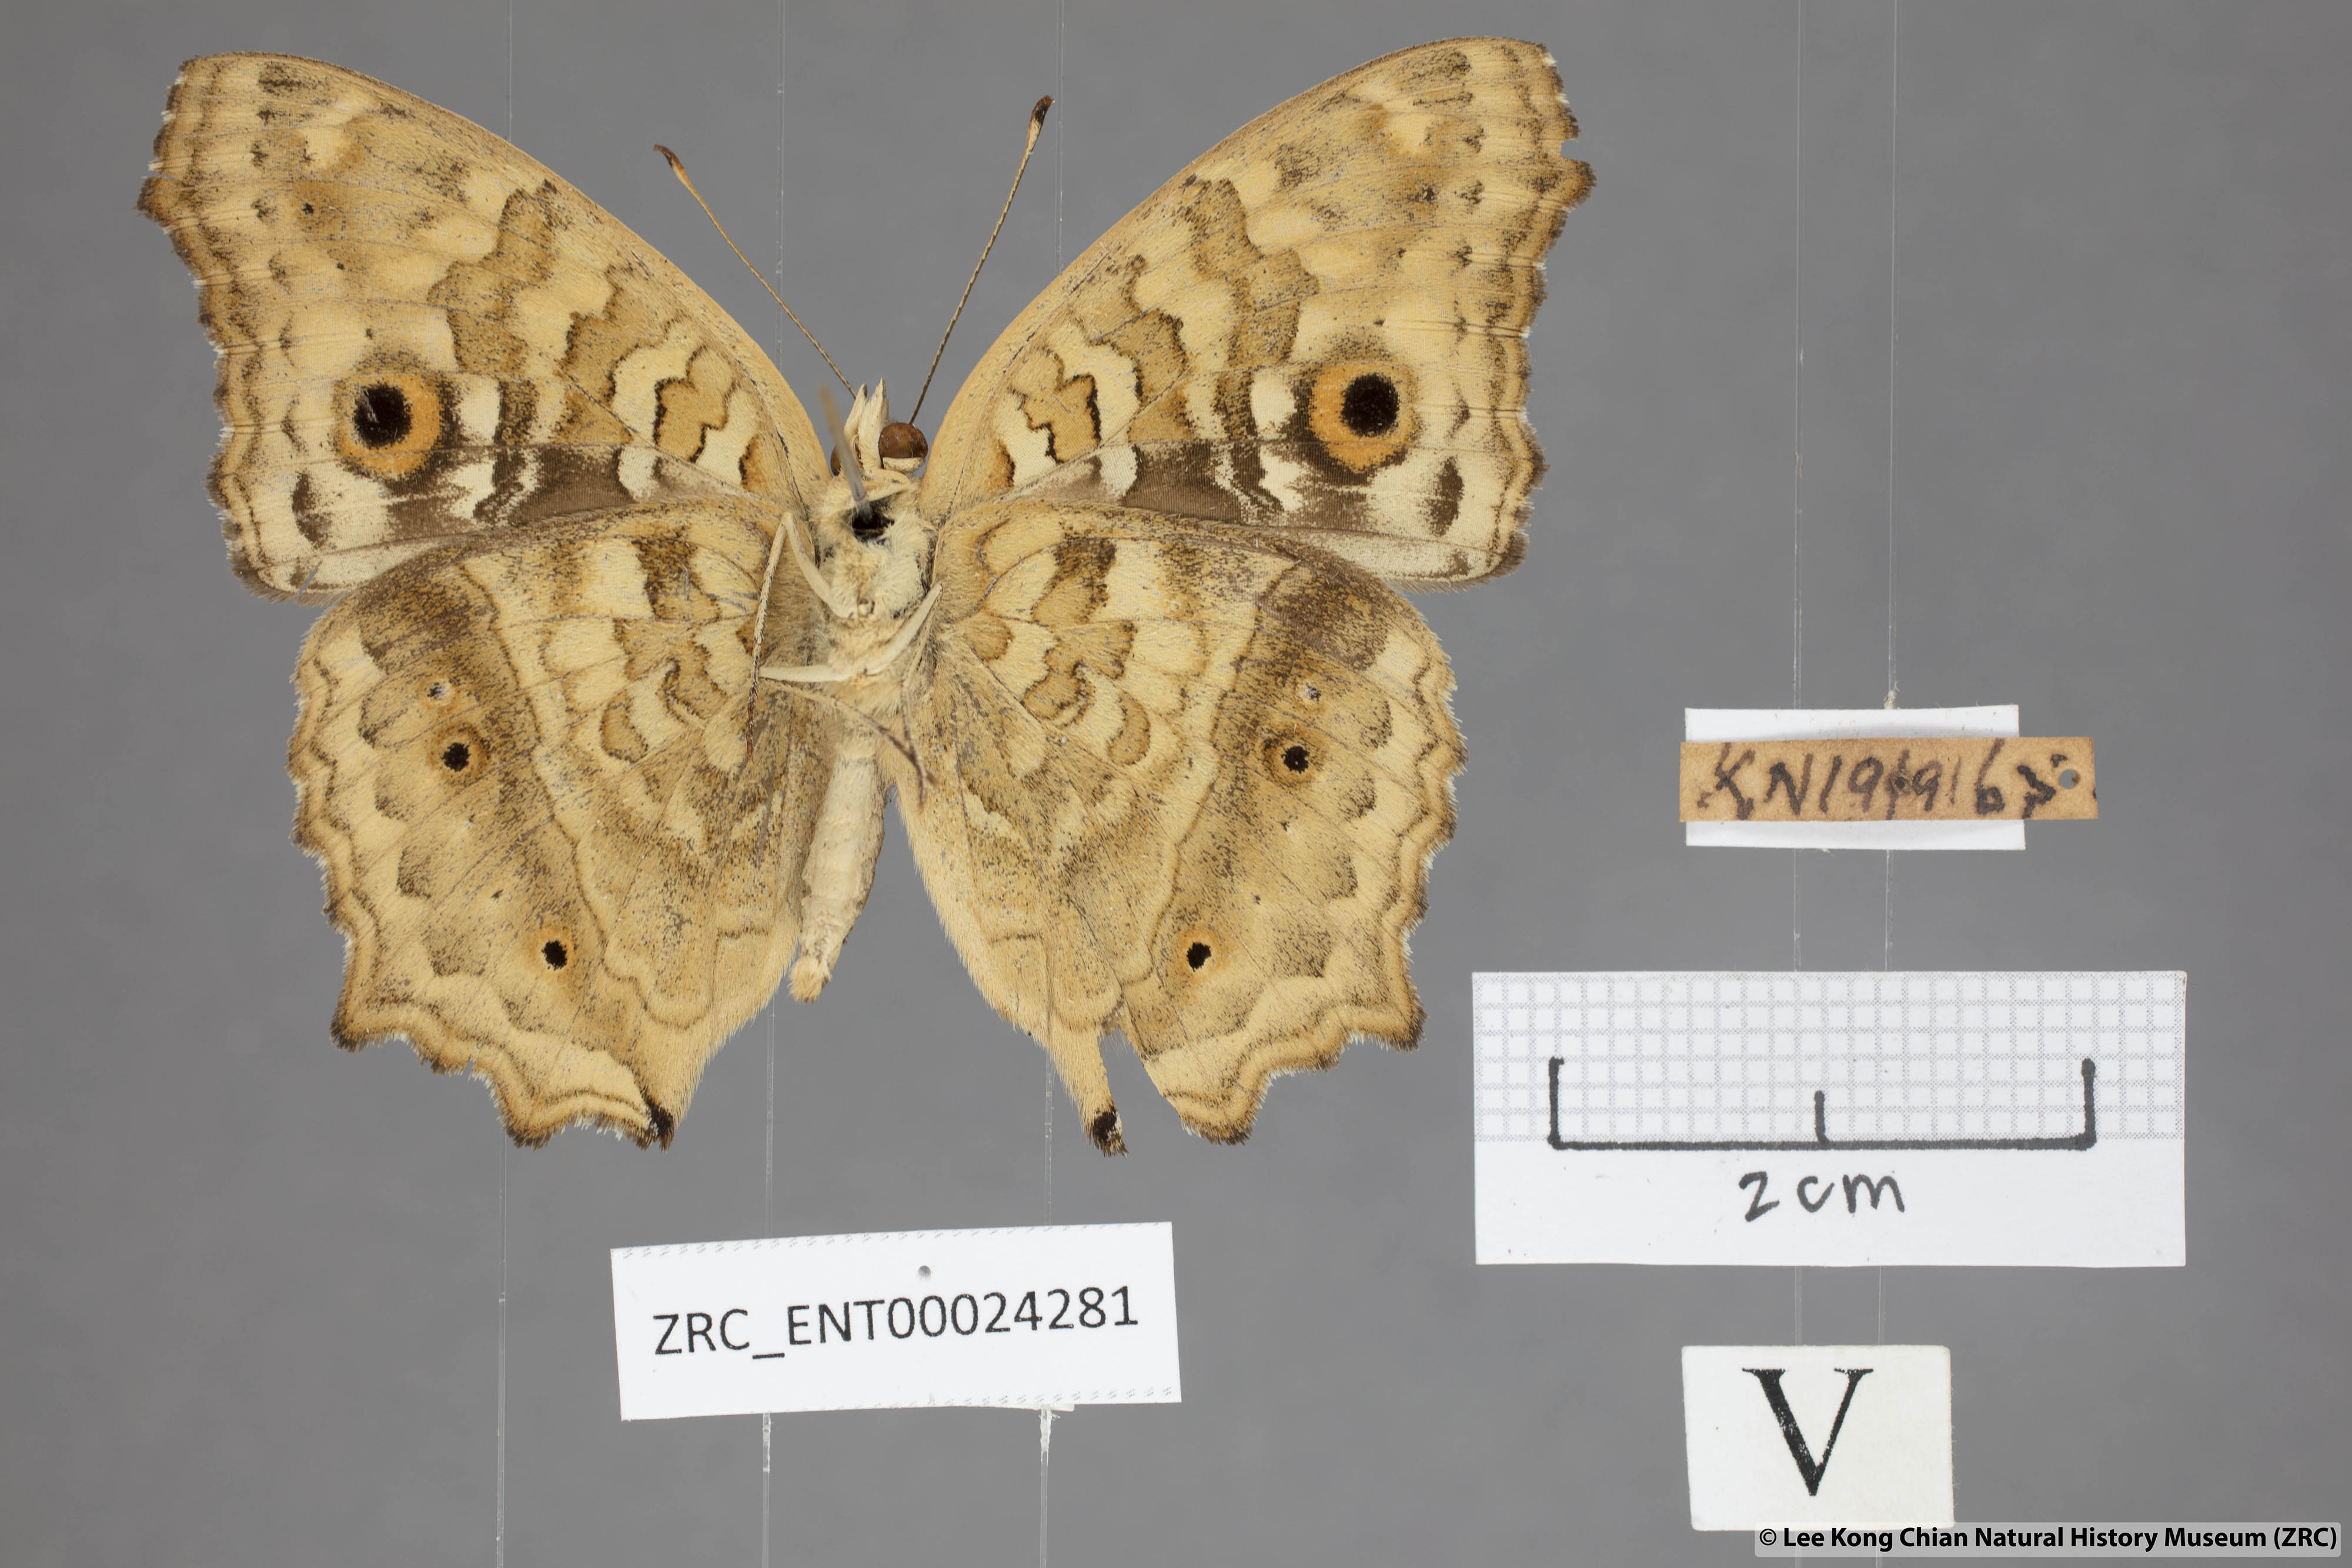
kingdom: Animalia
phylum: Arthropoda
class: Insecta
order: Lepidoptera
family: Nymphalidae
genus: Junonia
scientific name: Junonia lemonias
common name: Lemon pansy
